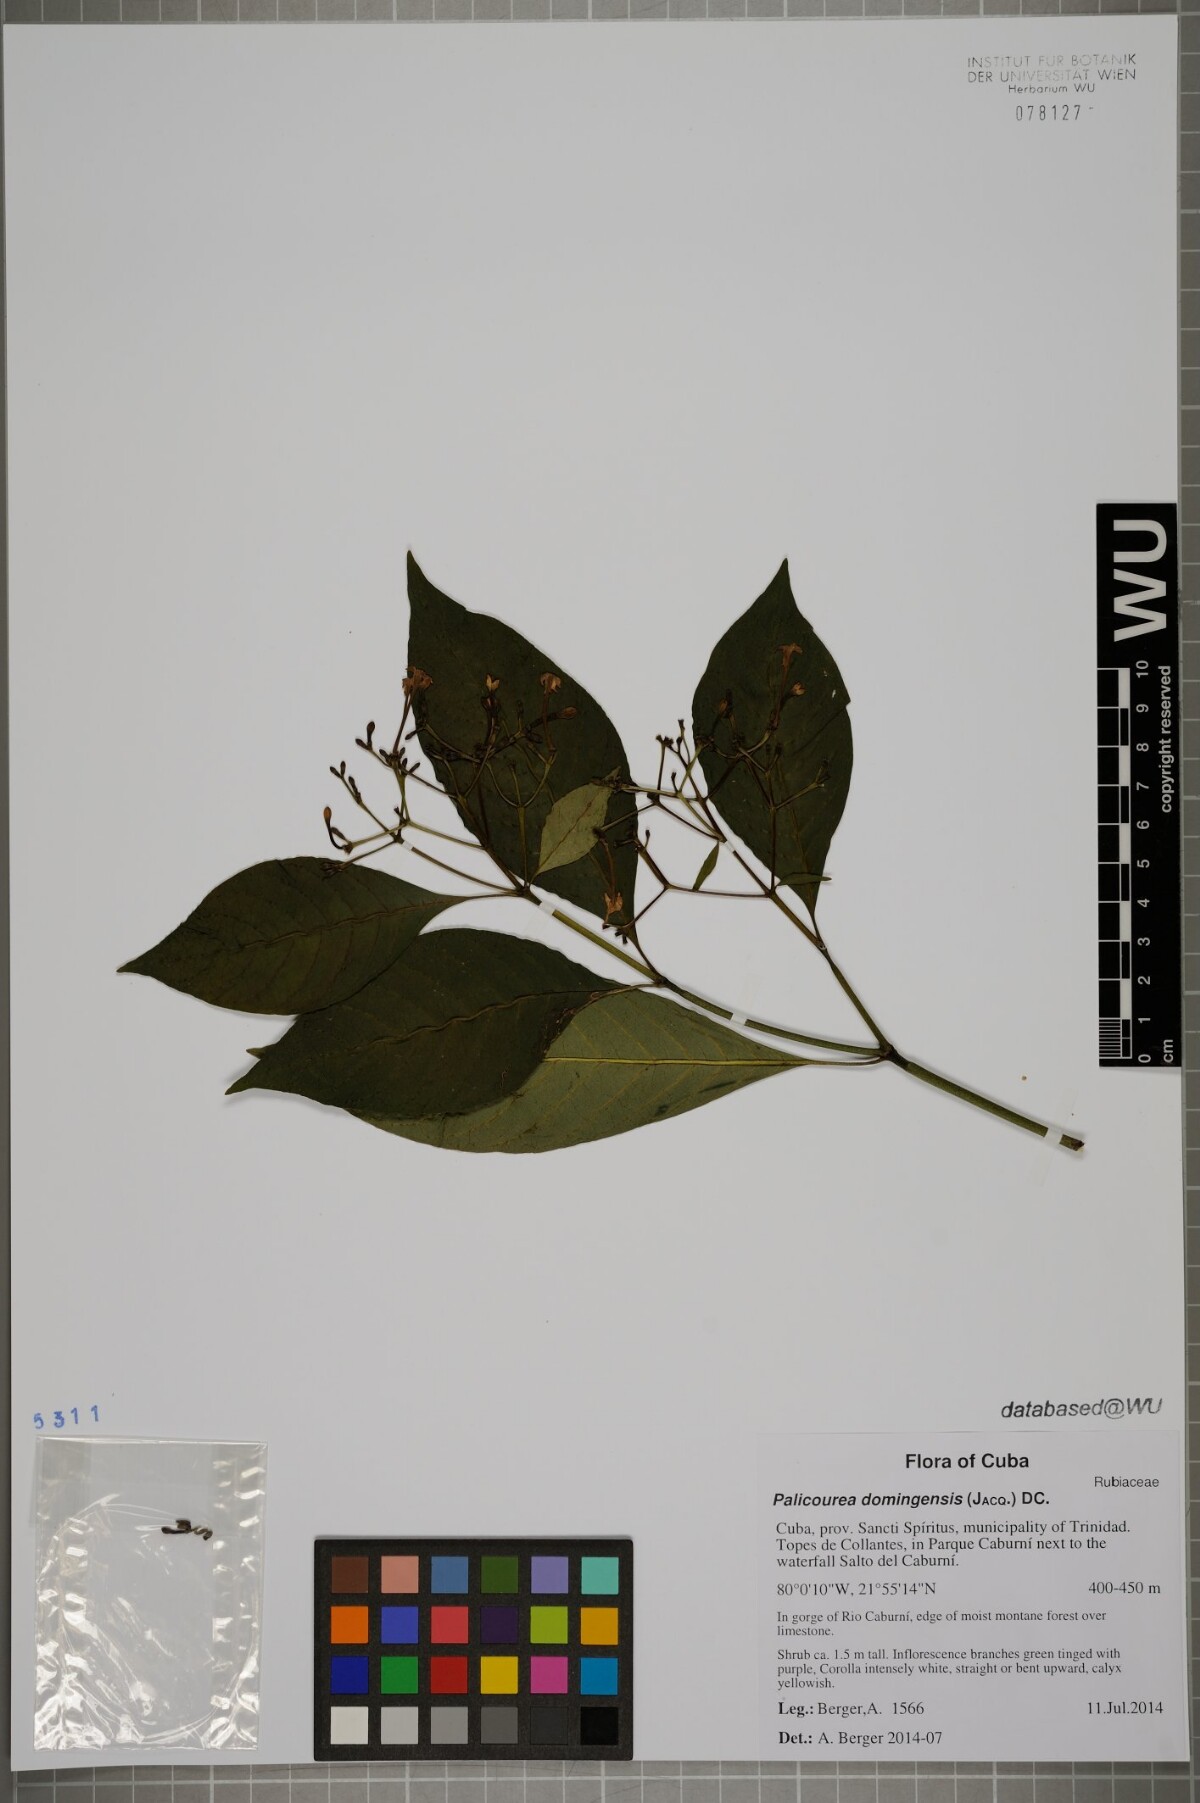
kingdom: Plantae
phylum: Tracheophyta
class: Magnoliopsida
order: Gentianales
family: Rubiaceae
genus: Palicourea
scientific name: Palicourea domingensis
